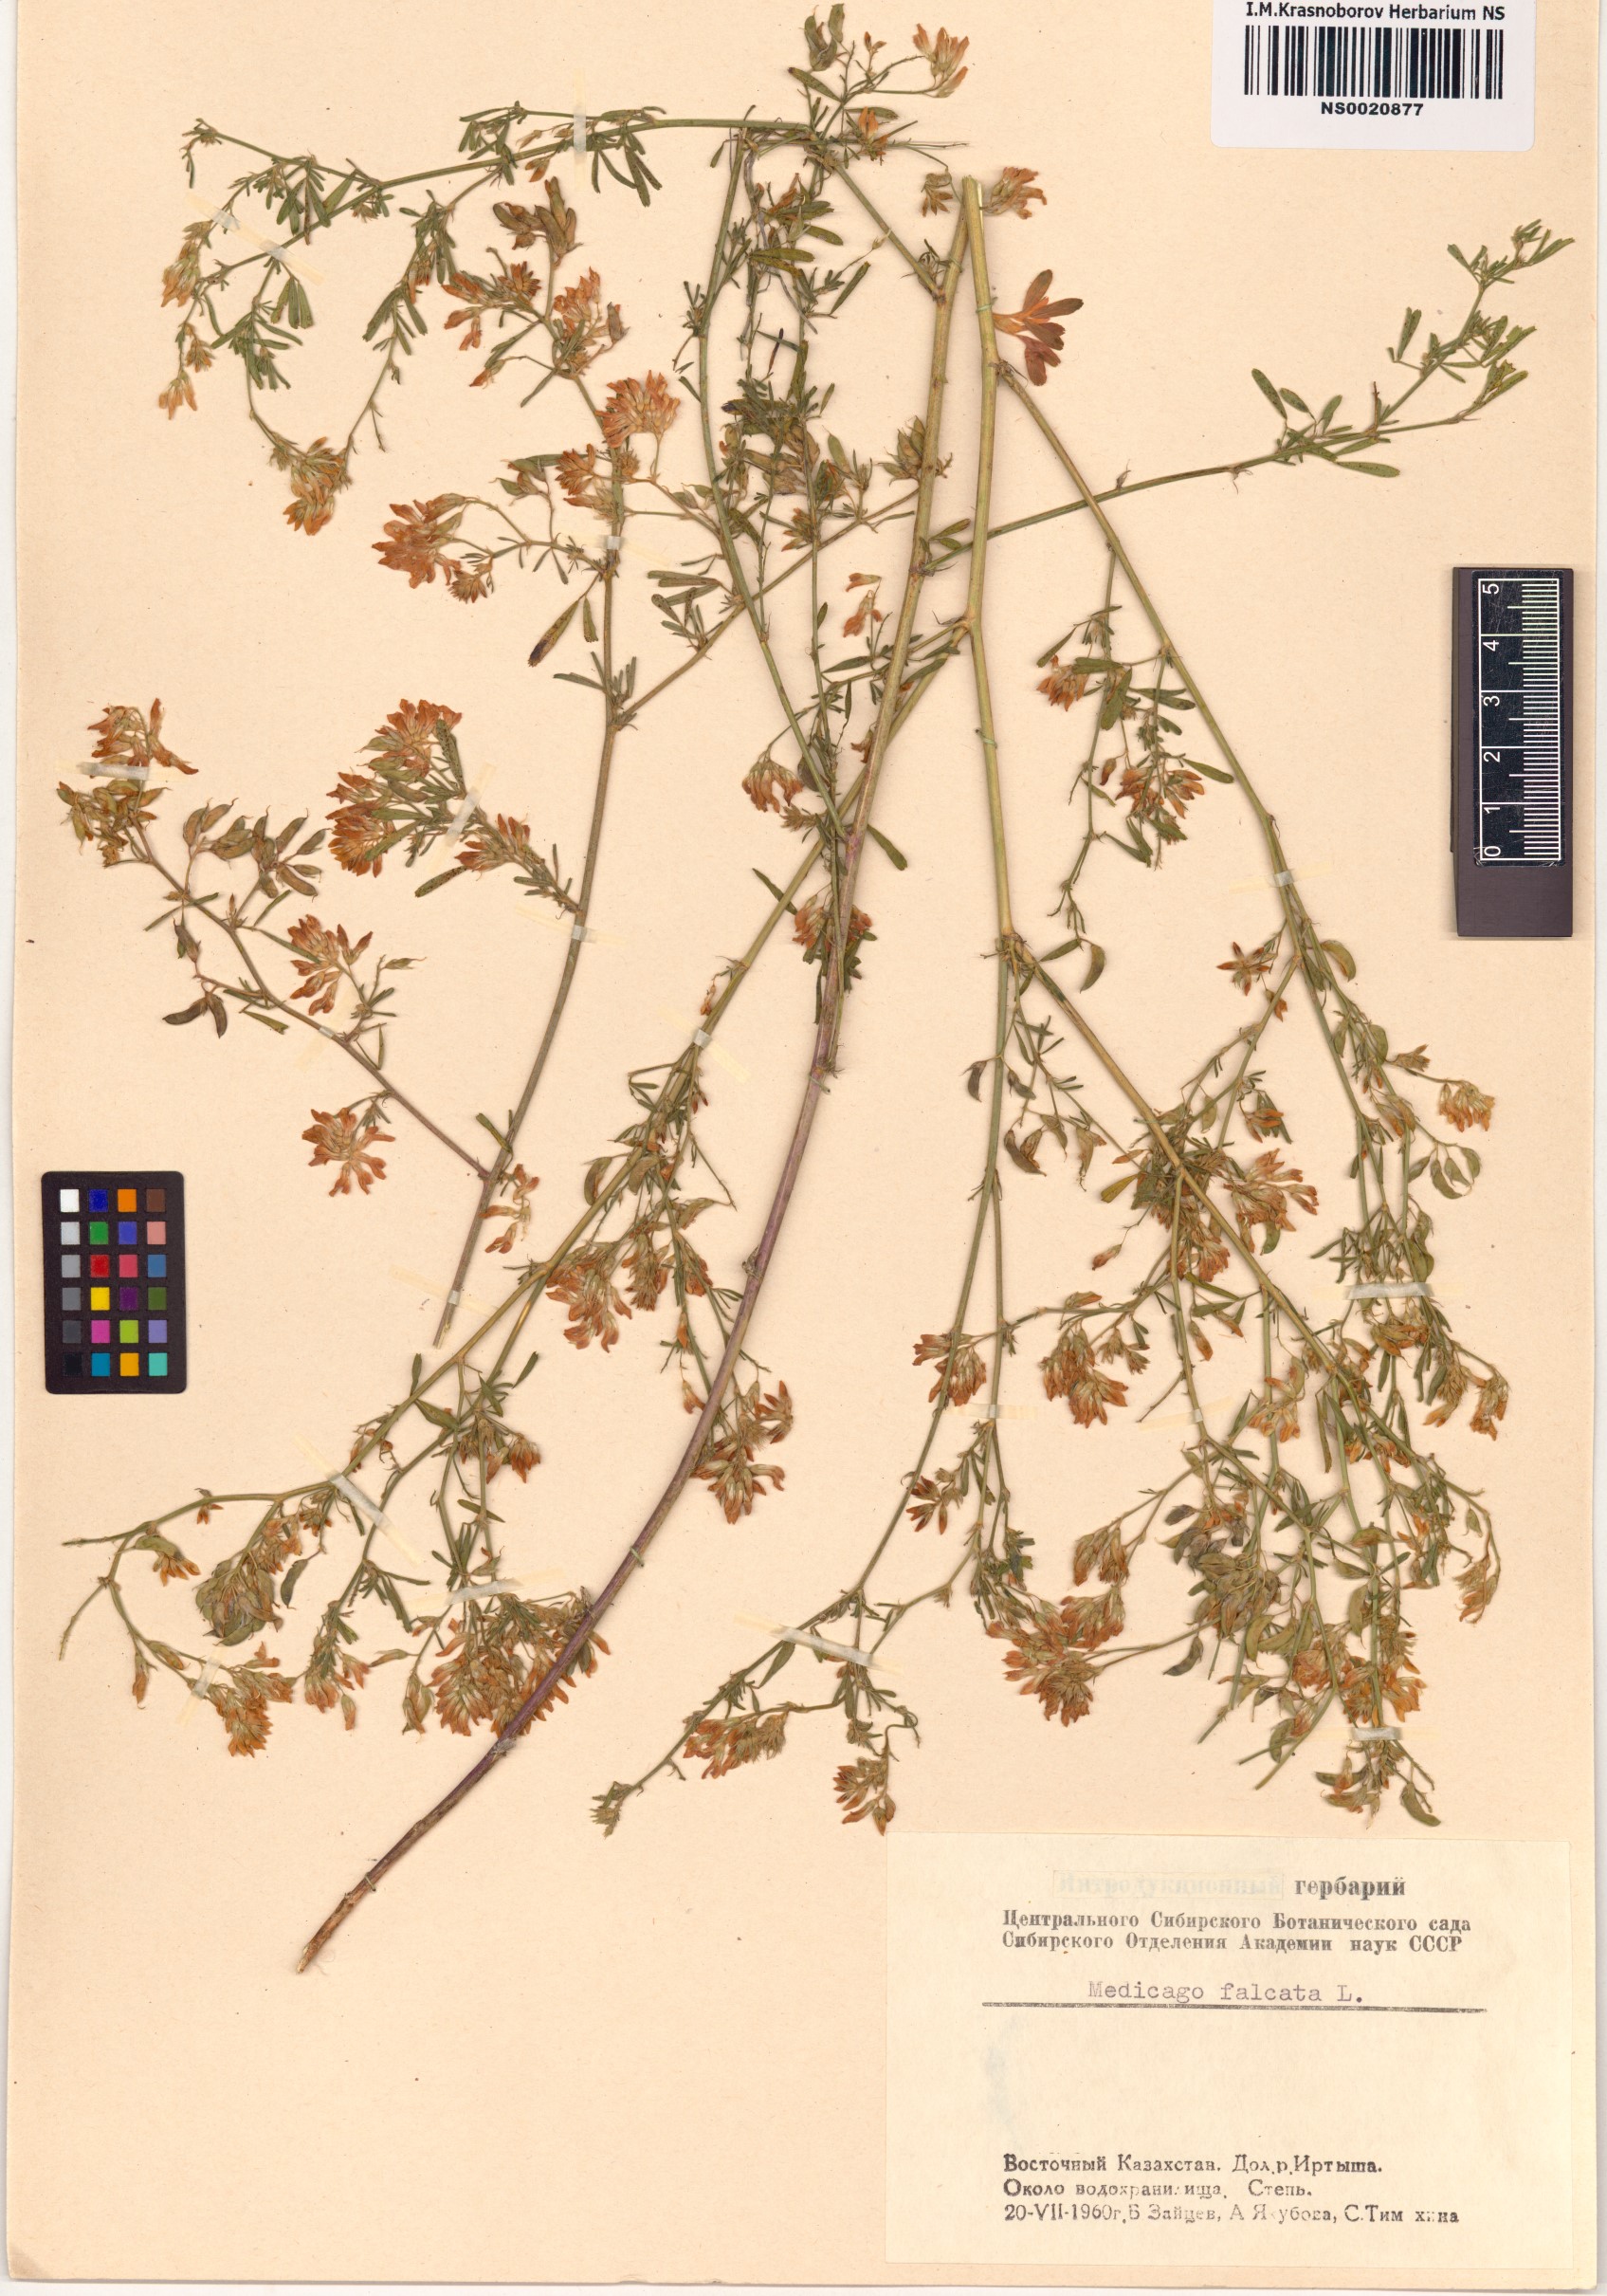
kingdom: Plantae
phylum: Tracheophyta
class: Magnoliopsida
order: Fabales
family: Fabaceae
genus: Medicago
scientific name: Medicago falcata
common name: Sickle medick
